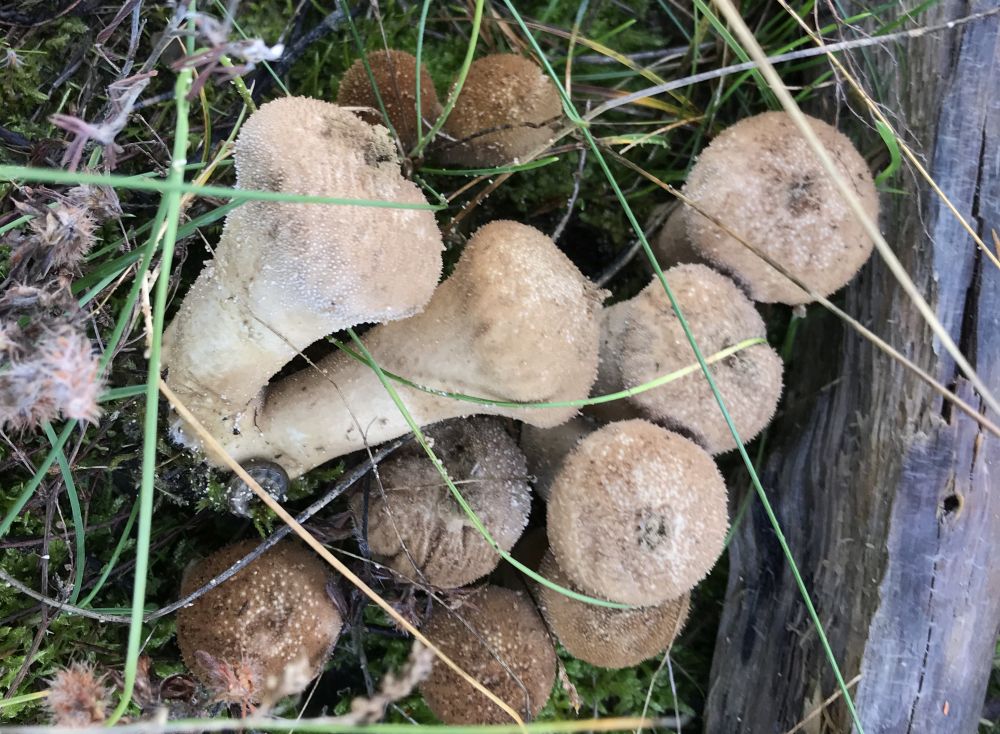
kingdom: Fungi
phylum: Basidiomycota
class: Agaricomycetes
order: Agaricales
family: Lycoperdaceae
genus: Lycoperdon
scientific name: Lycoperdon perlatum
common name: krystal-støvbold
